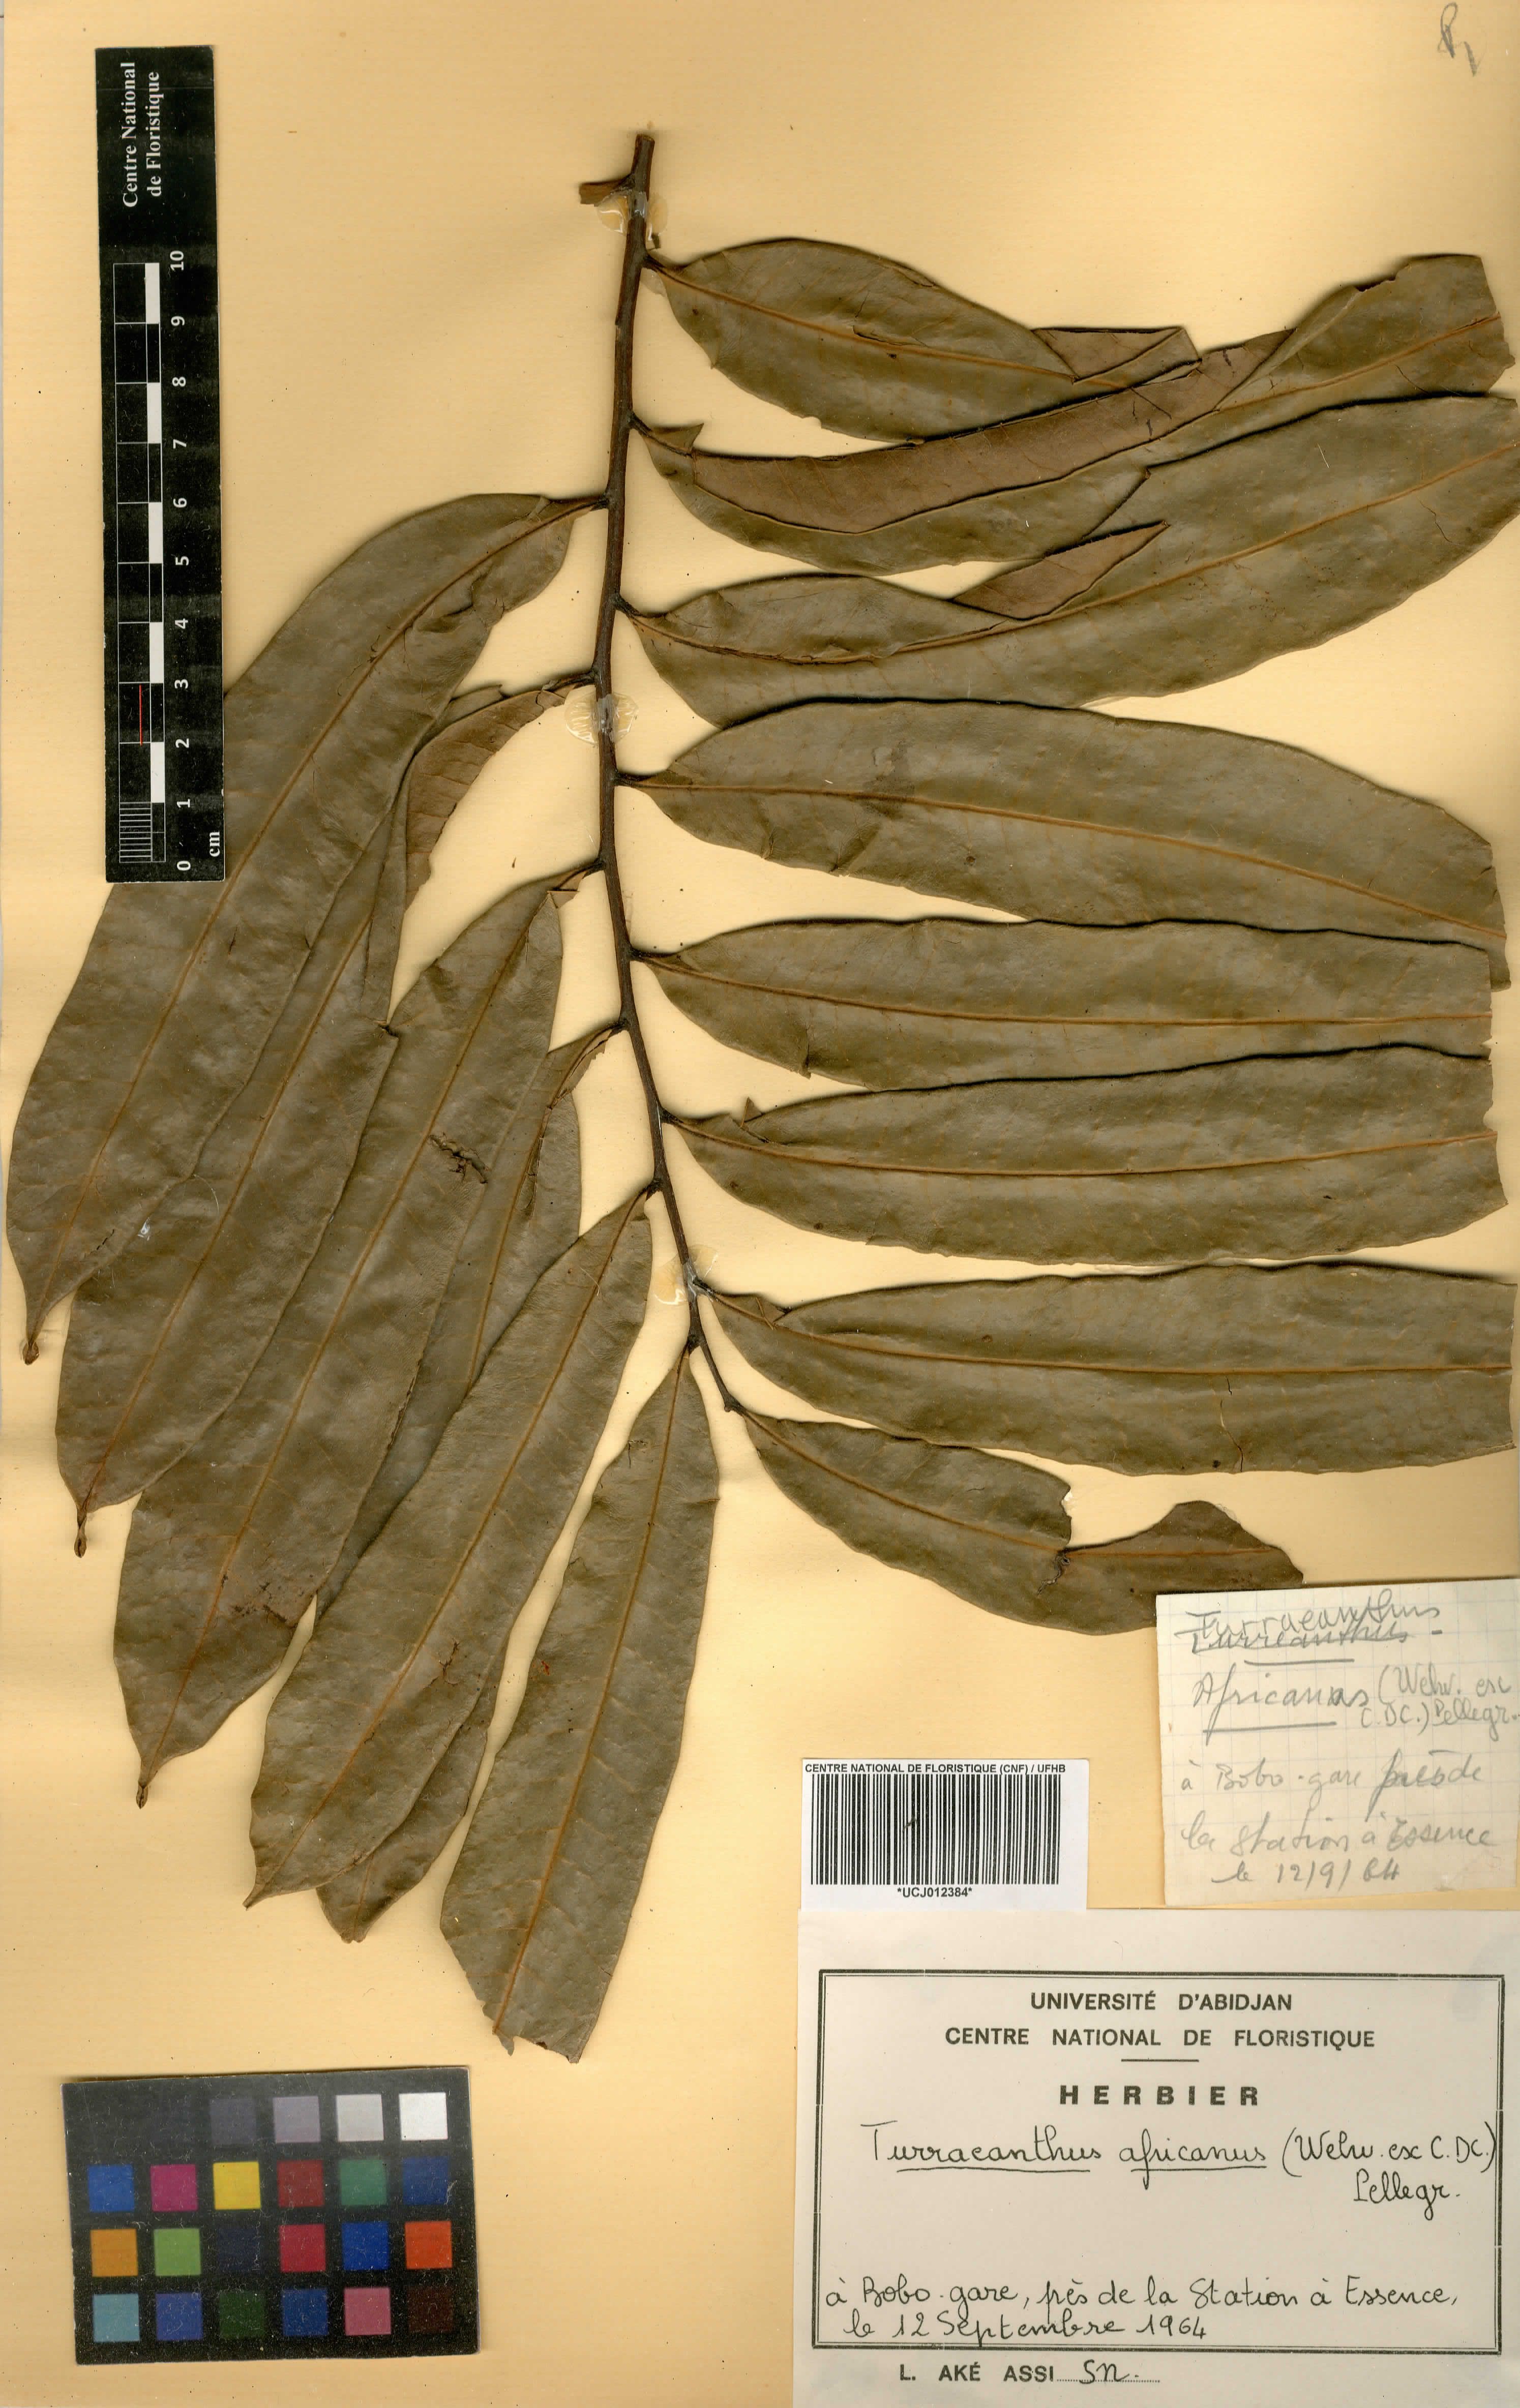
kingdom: Plantae
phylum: Tracheophyta
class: Magnoliopsida
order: Sapindales
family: Meliaceae
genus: Turraeanthus
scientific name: Turraeanthus africanus
